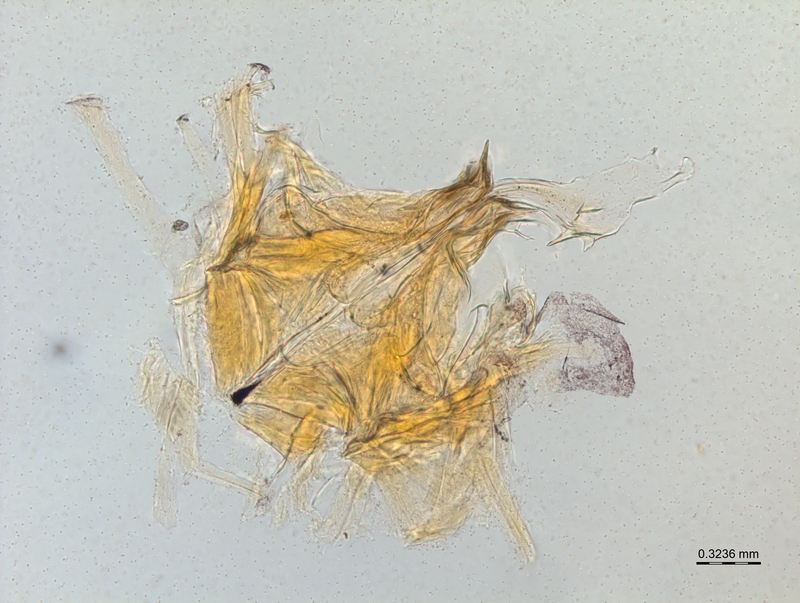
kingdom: Animalia
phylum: Arthropoda
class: Diplopoda
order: Chordeumatida
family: Craspedosomatidae
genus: Bomogona
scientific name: Bomogona lombardica
